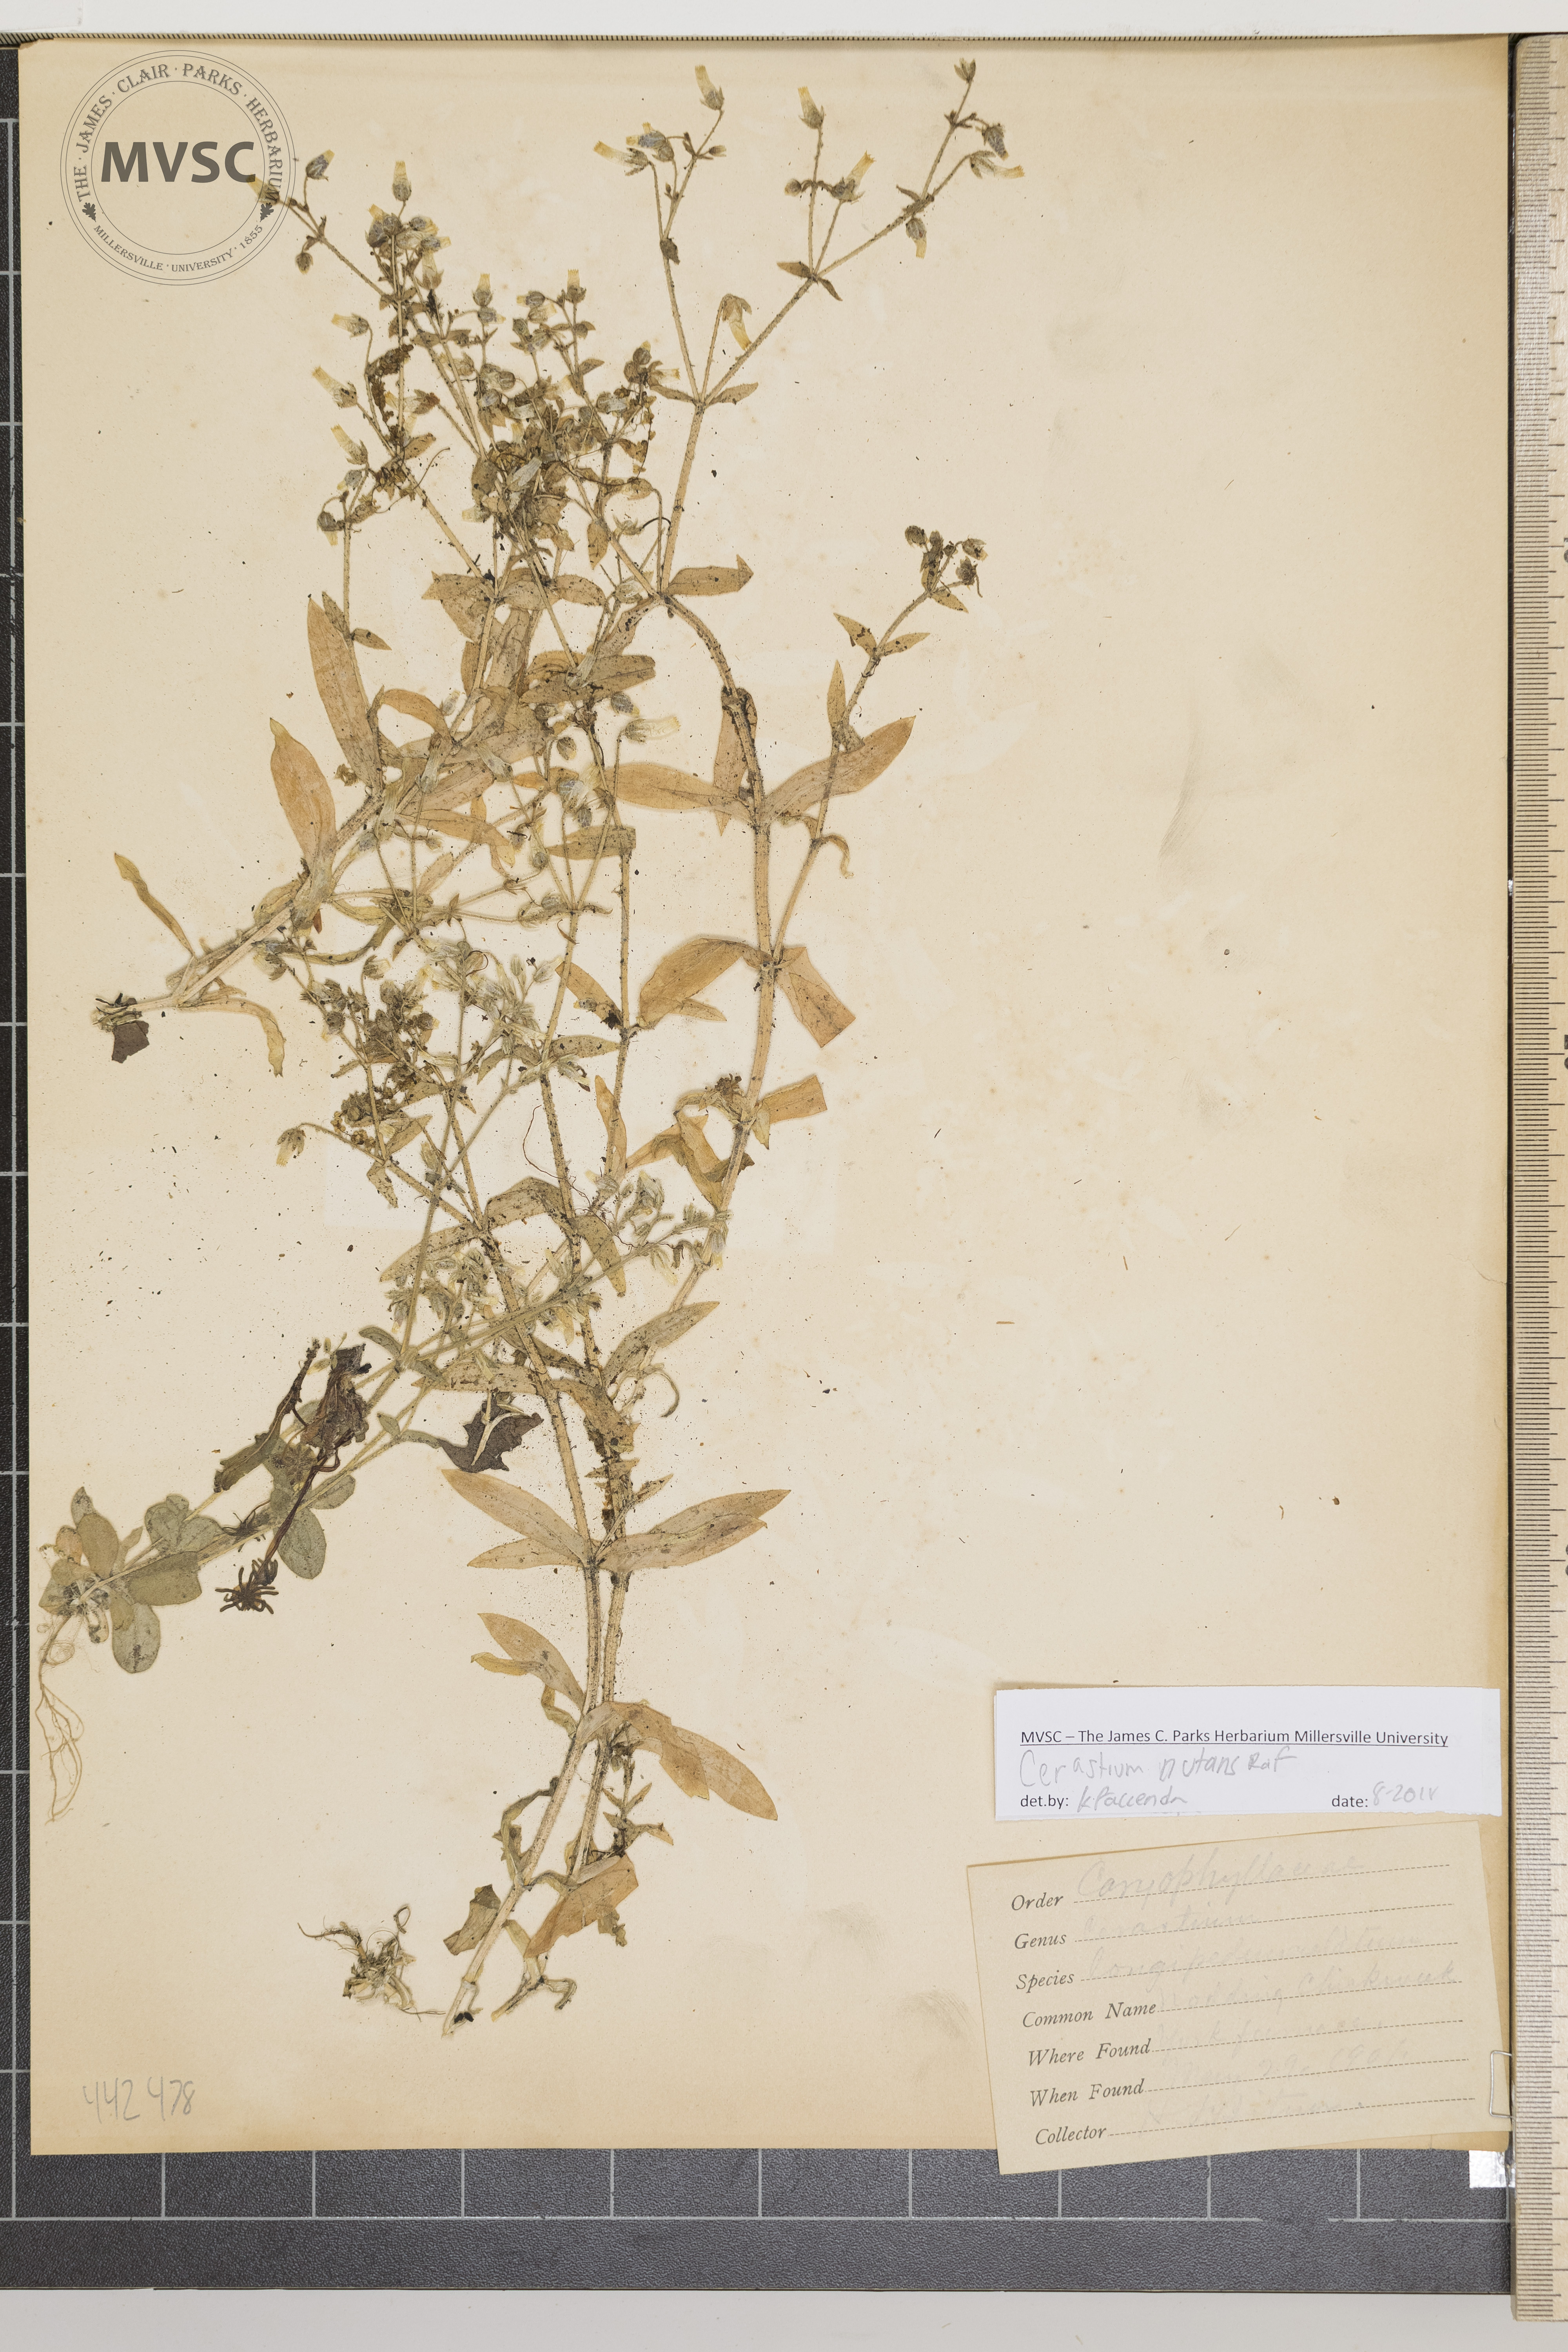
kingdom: Plantae
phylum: Tracheophyta
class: Magnoliopsida
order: Caryophyllales
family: Caryophyllaceae
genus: Cerastium
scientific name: Cerastium nutans
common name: Nodding chickweed
